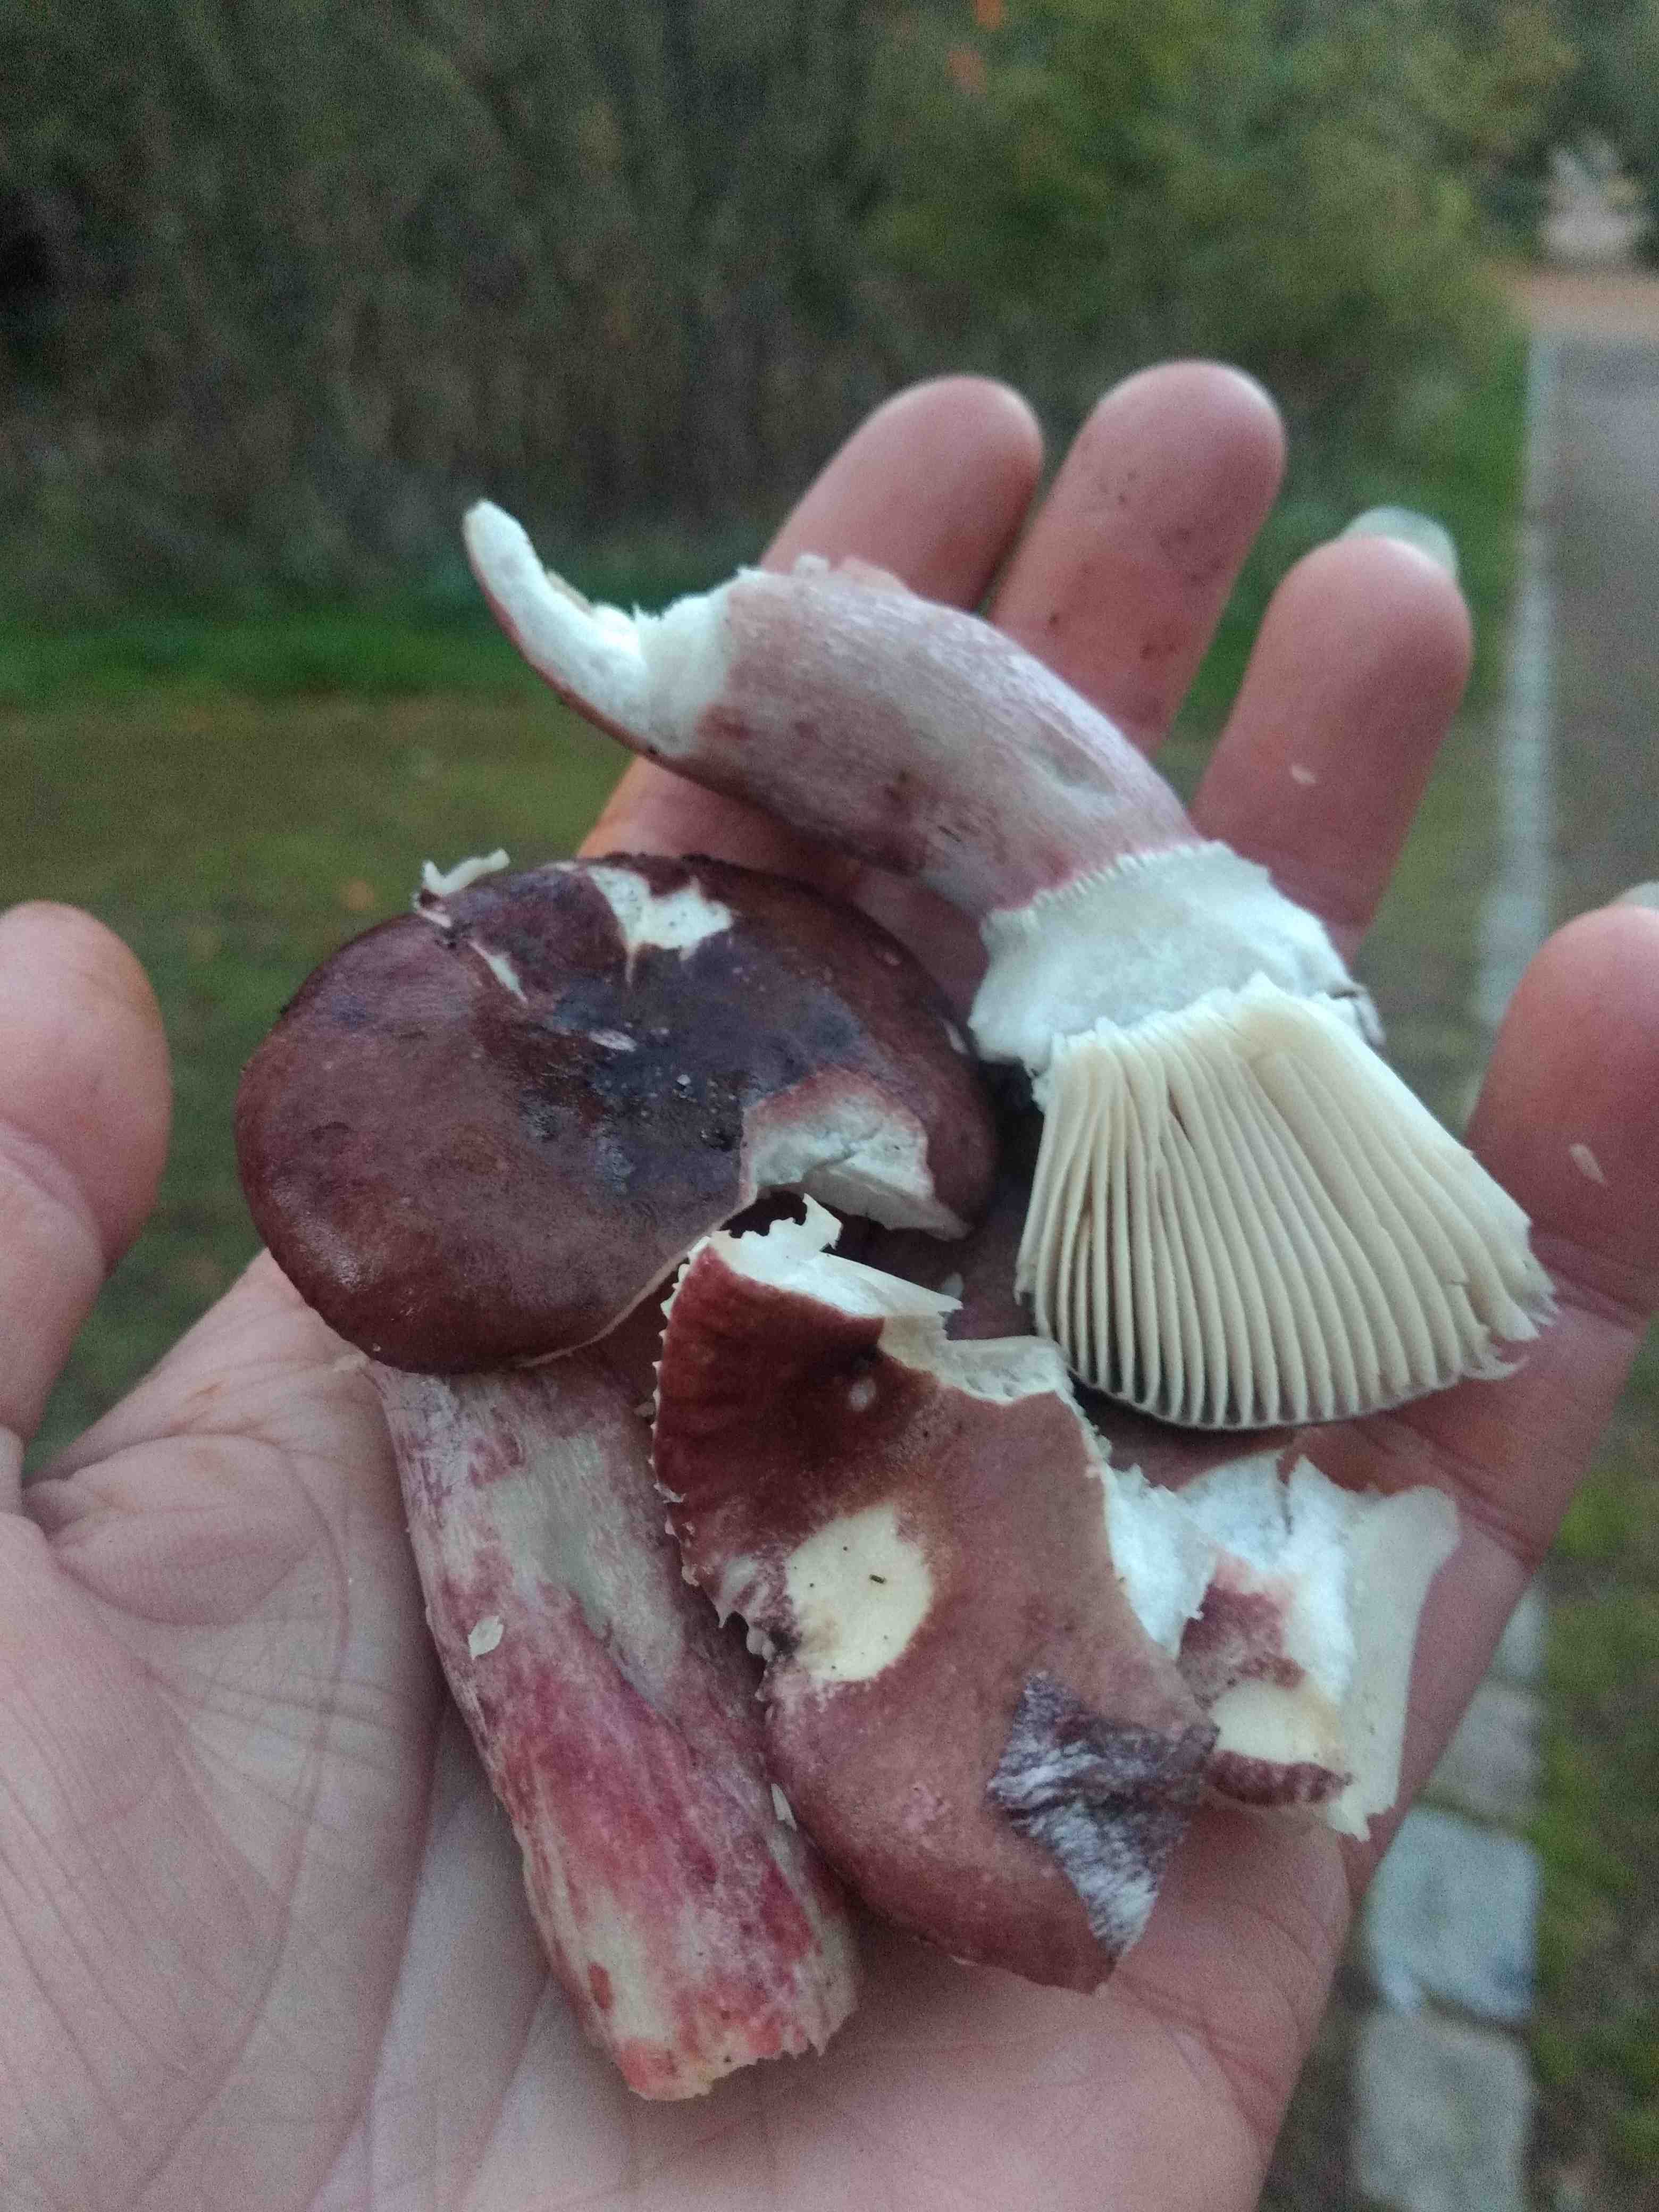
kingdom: Fungi
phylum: Basidiomycota
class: Agaricomycetes
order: Russulales
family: Russulaceae
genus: Russula
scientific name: Russula queletii
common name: Quélets skørhat
